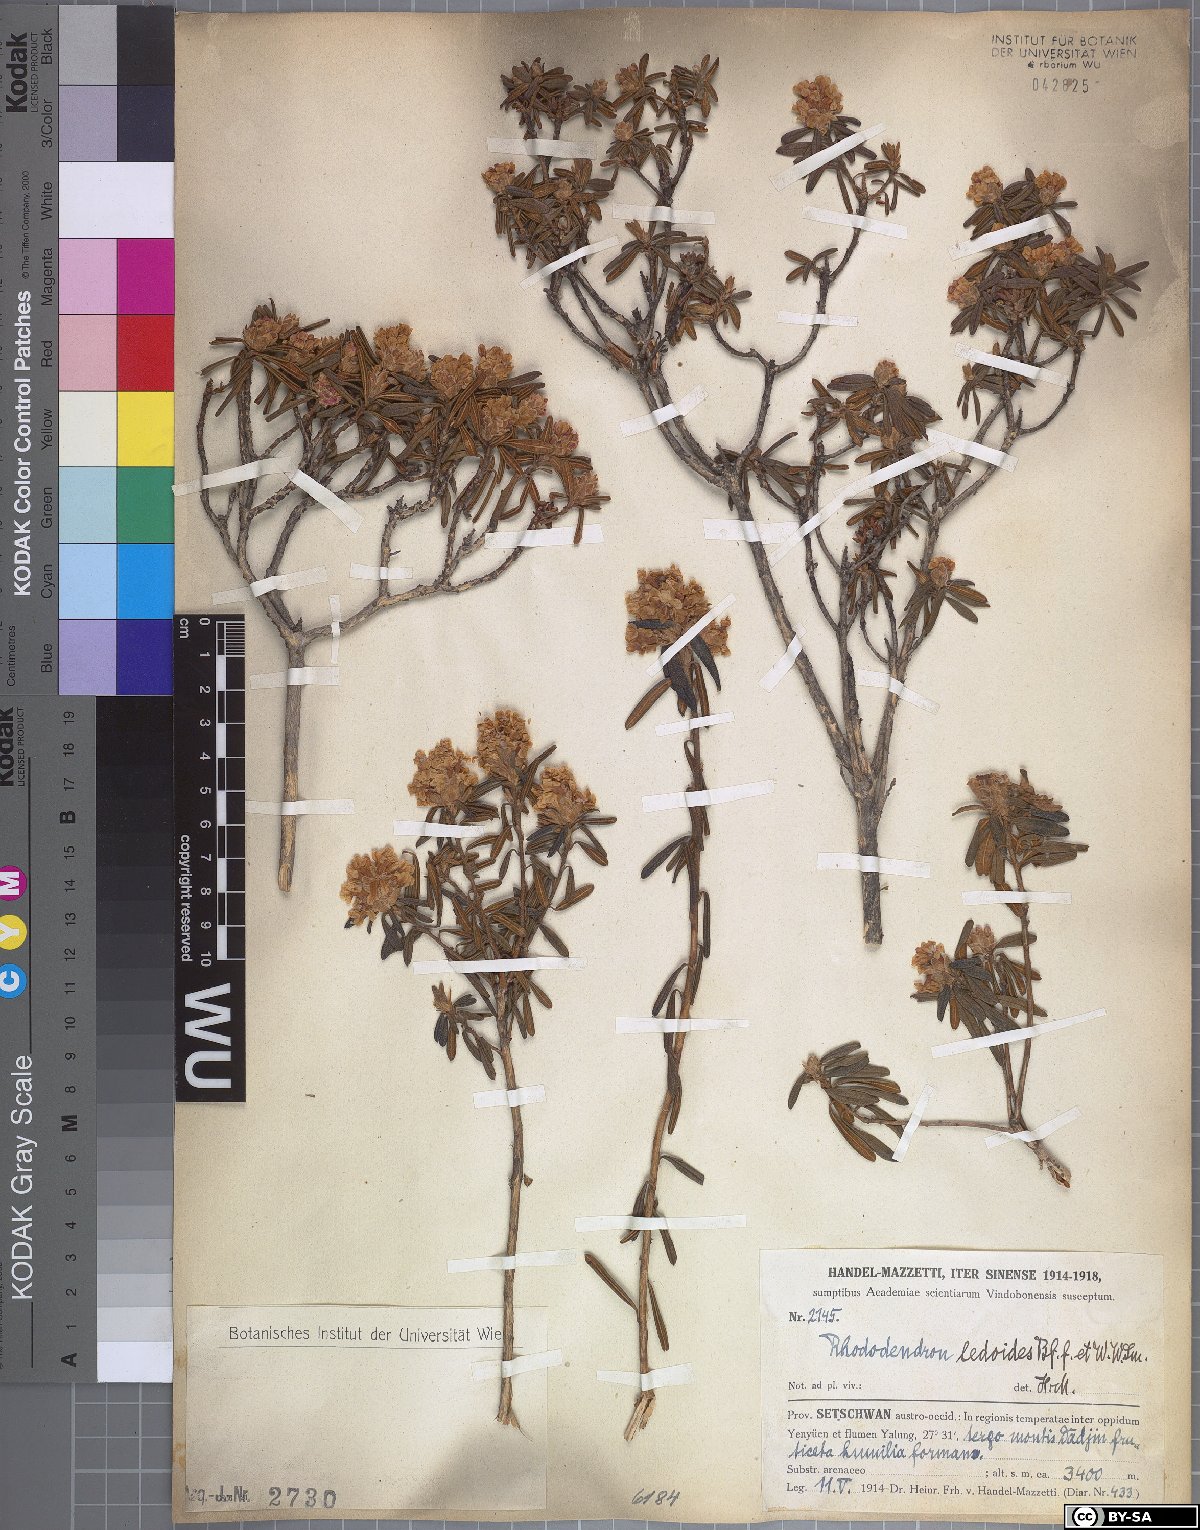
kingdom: Plantae
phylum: Tracheophyta
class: Magnoliopsida
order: Ericales
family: Ericaceae
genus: Rhododendron
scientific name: Rhododendron trichostomum
